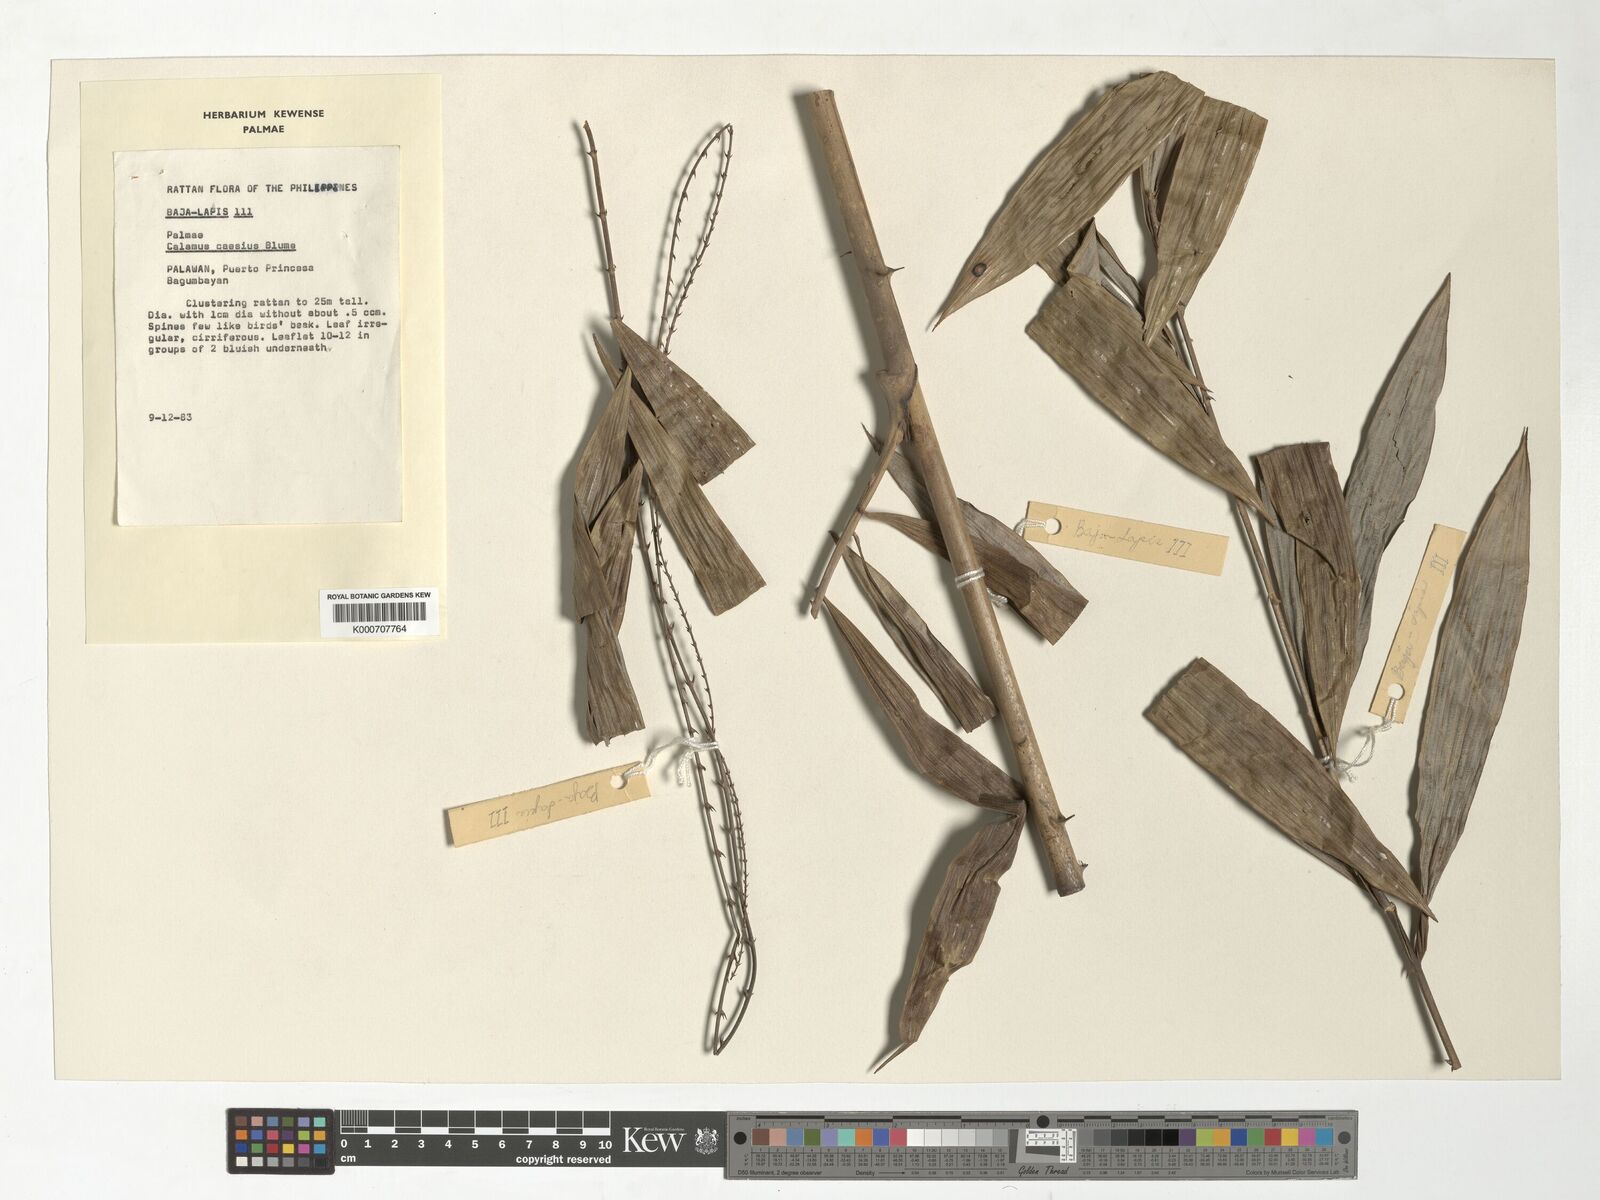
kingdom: Plantae
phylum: Tracheophyta
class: Liliopsida
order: Arecales
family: Arecaceae
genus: Calamus
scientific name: Calamus caesius
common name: Rattan palm
